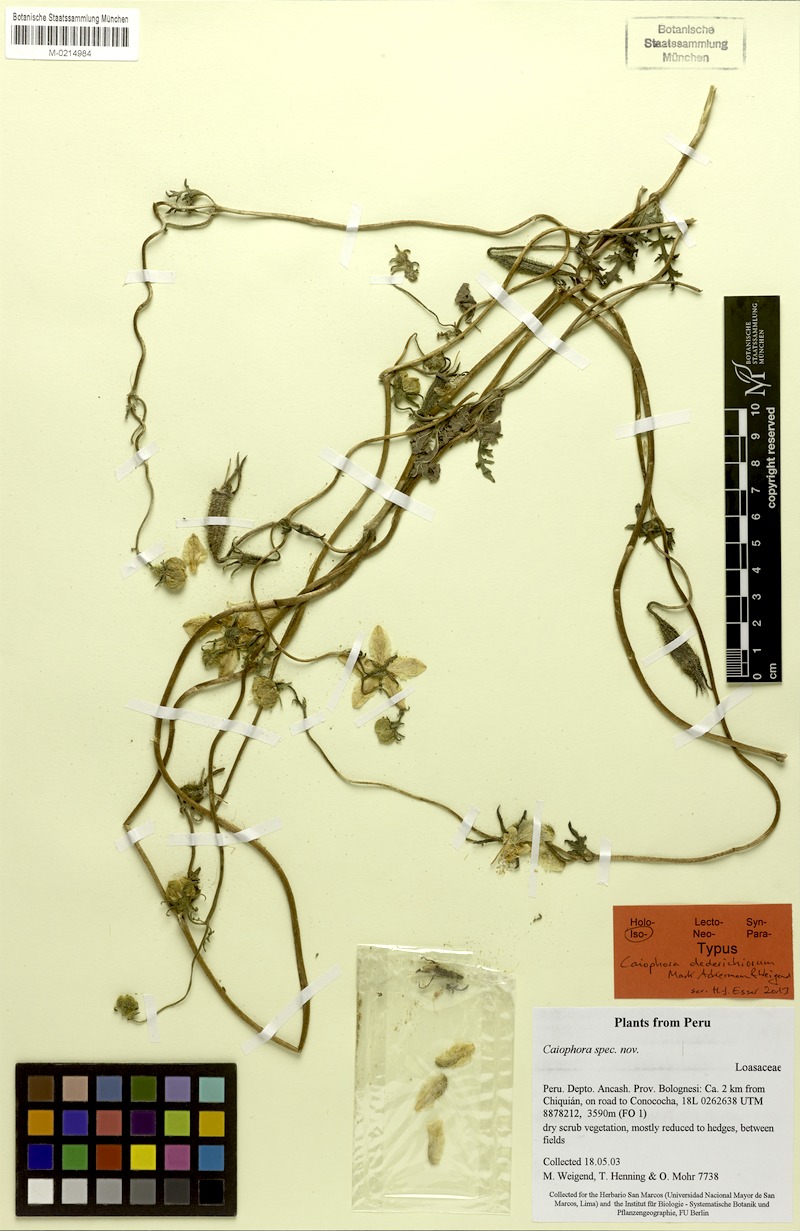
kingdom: Plantae
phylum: Tracheophyta
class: Magnoliopsida
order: Cornales
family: Loasaceae
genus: Caiophora
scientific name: Caiophora dederichiorum
